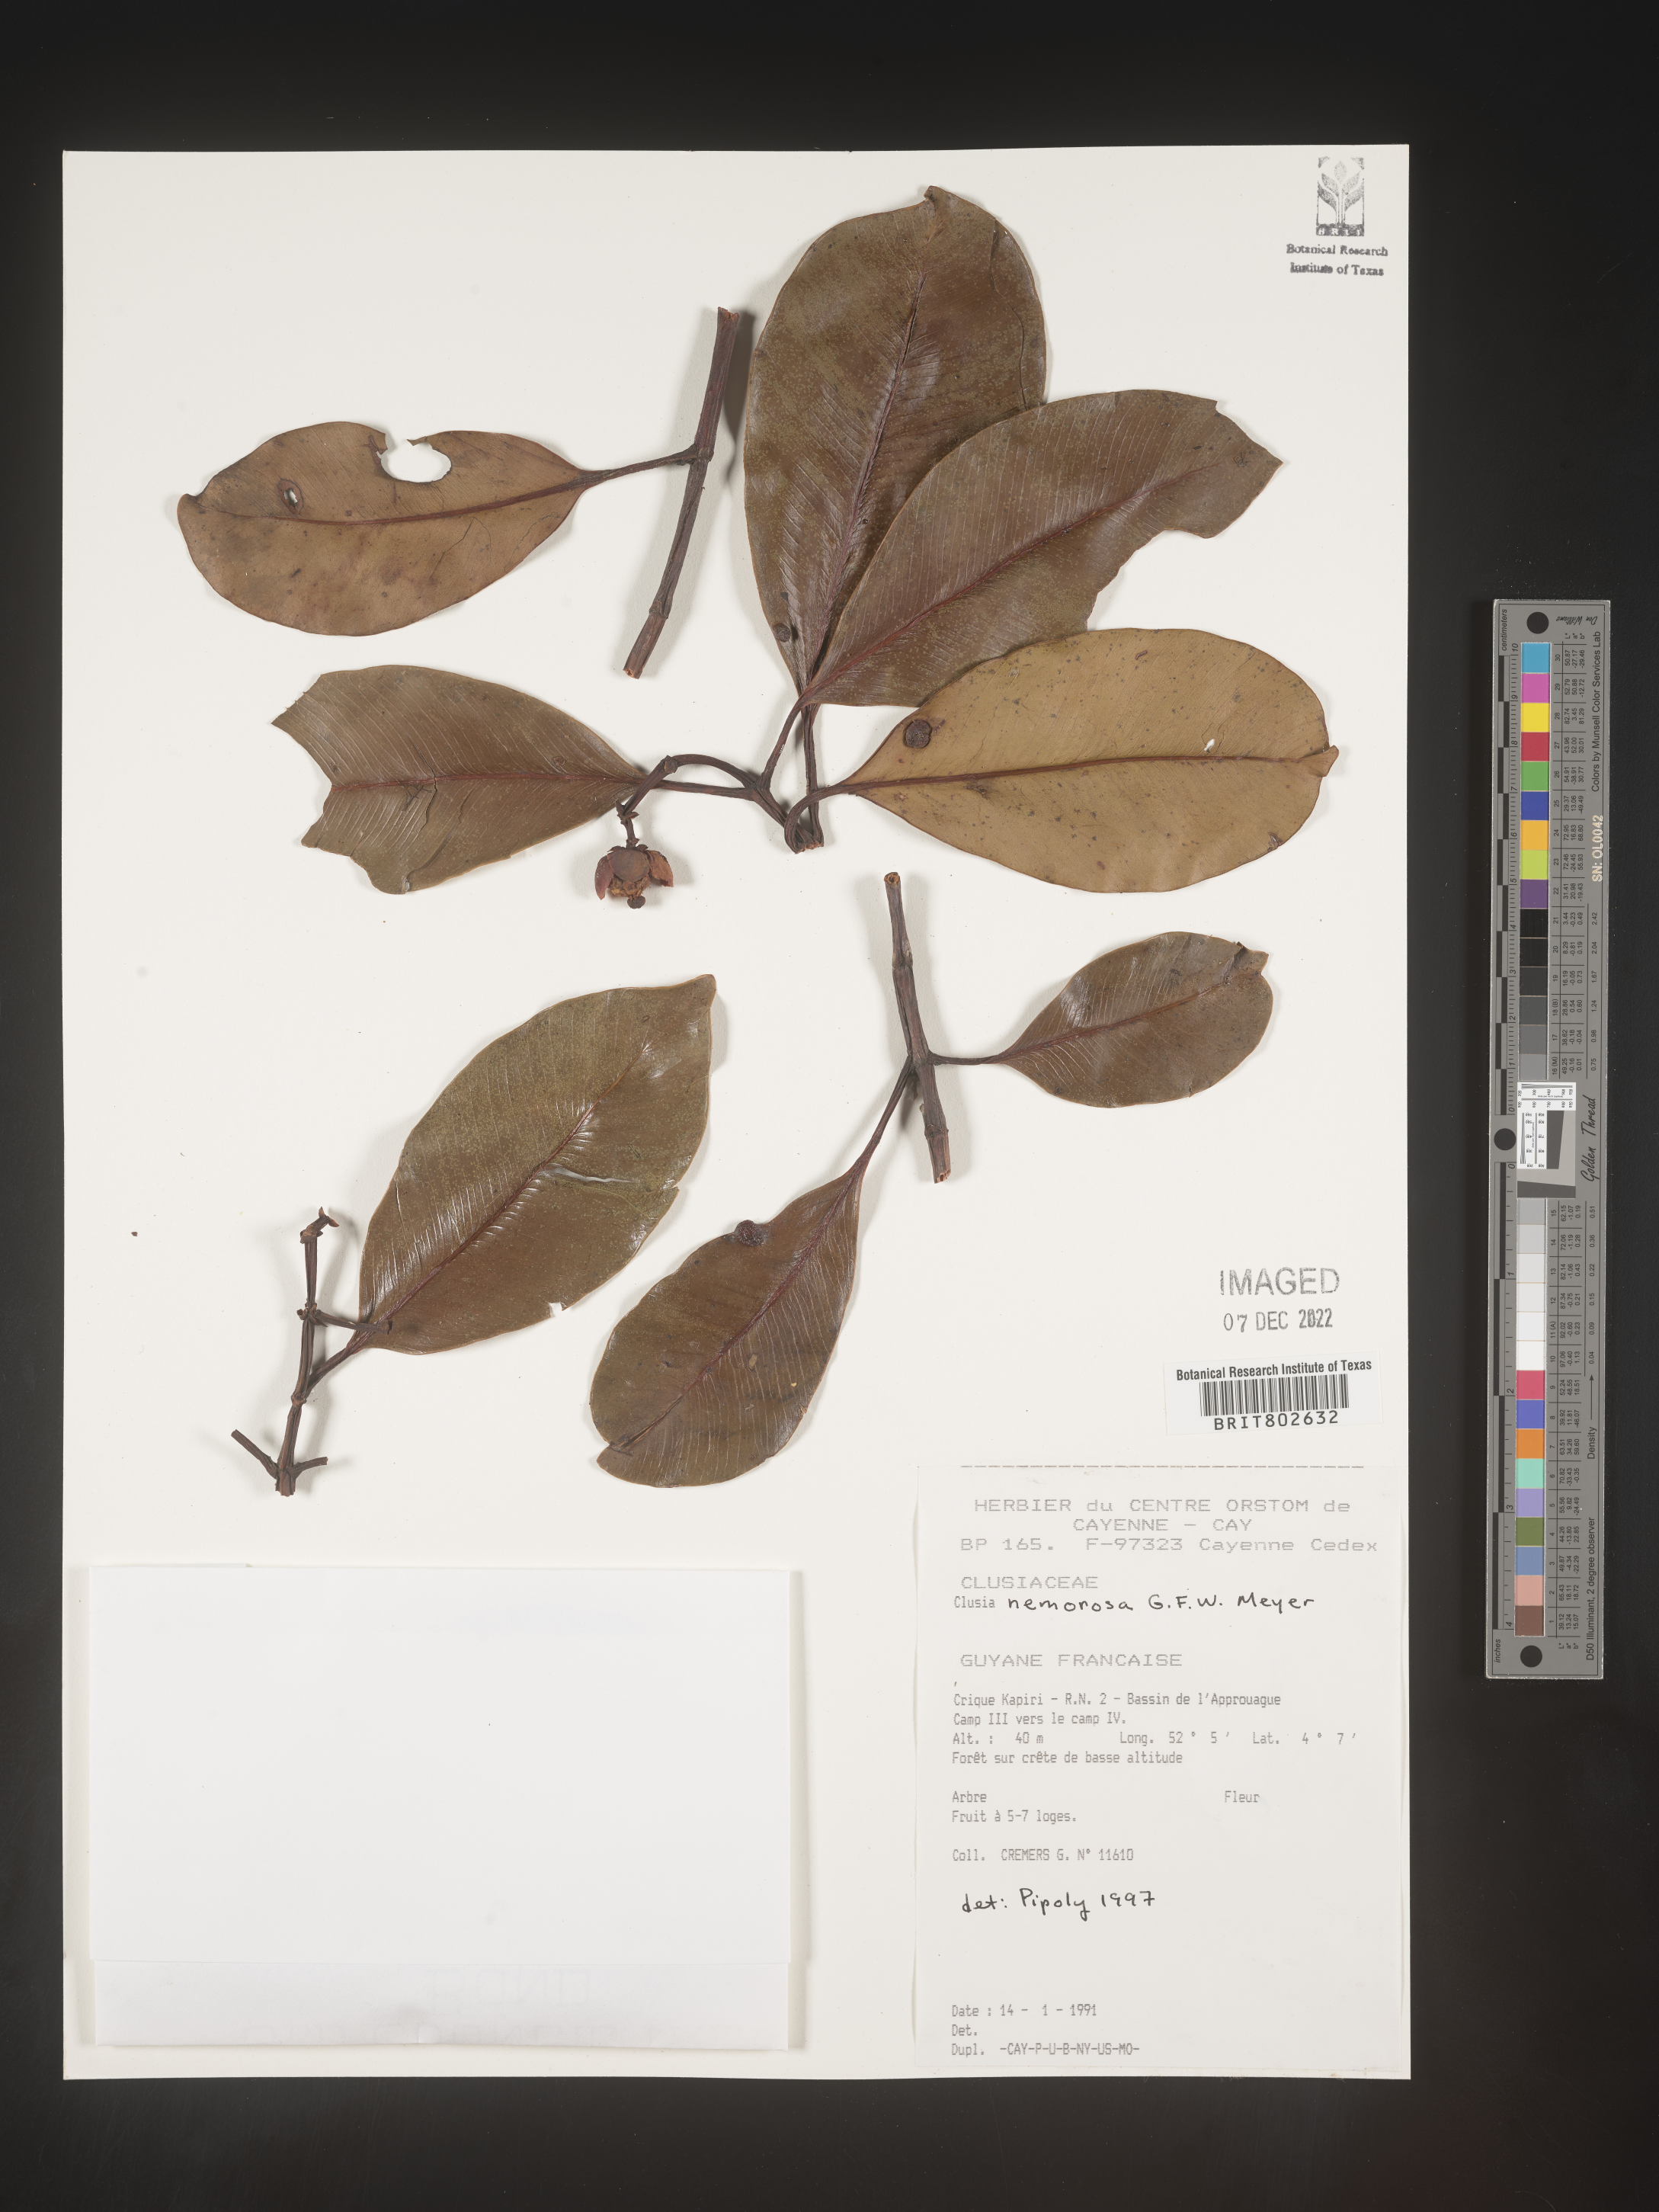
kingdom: Plantae
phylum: Tracheophyta
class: Magnoliopsida
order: Malpighiales
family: Clusiaceae
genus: Clusia
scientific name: Clusia nemorosa
